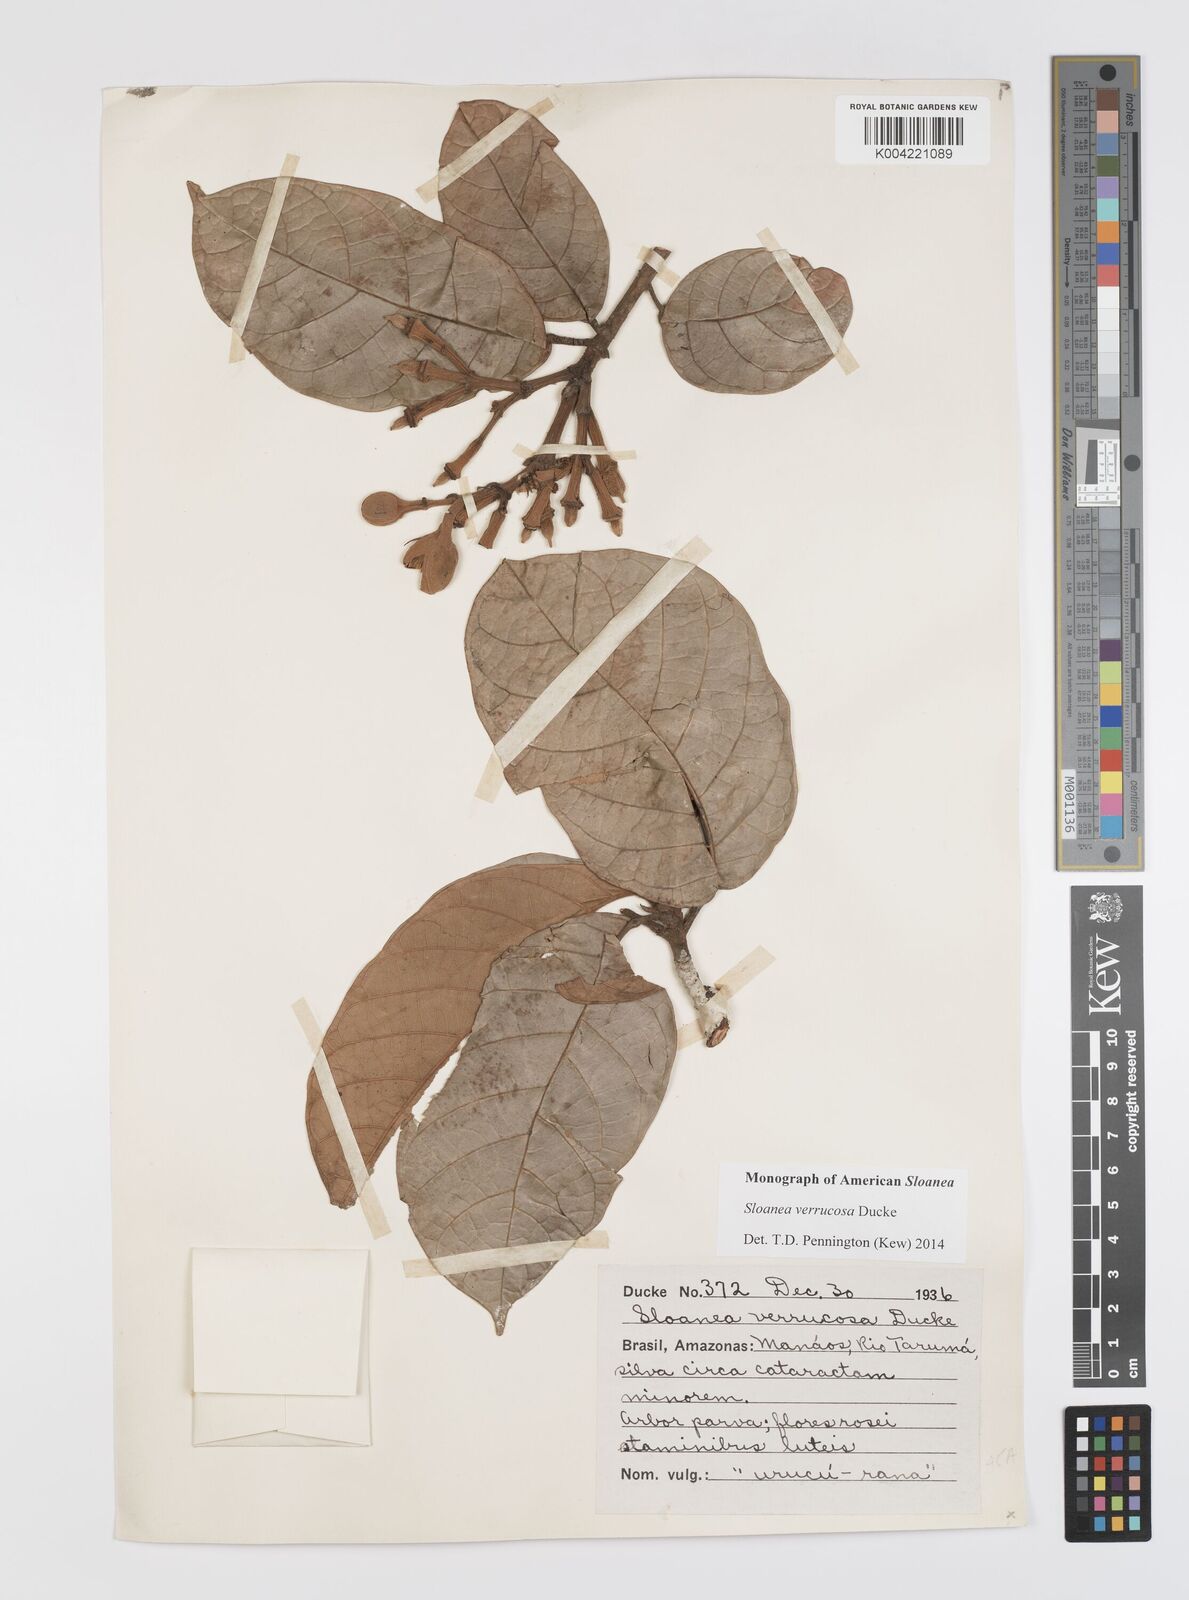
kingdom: Plantae
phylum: Tracheophyta
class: Magnoliopsida
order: Oxalidales
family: Elaeocarpaceae
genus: Sloanea
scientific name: Sloanea schomburgkii
